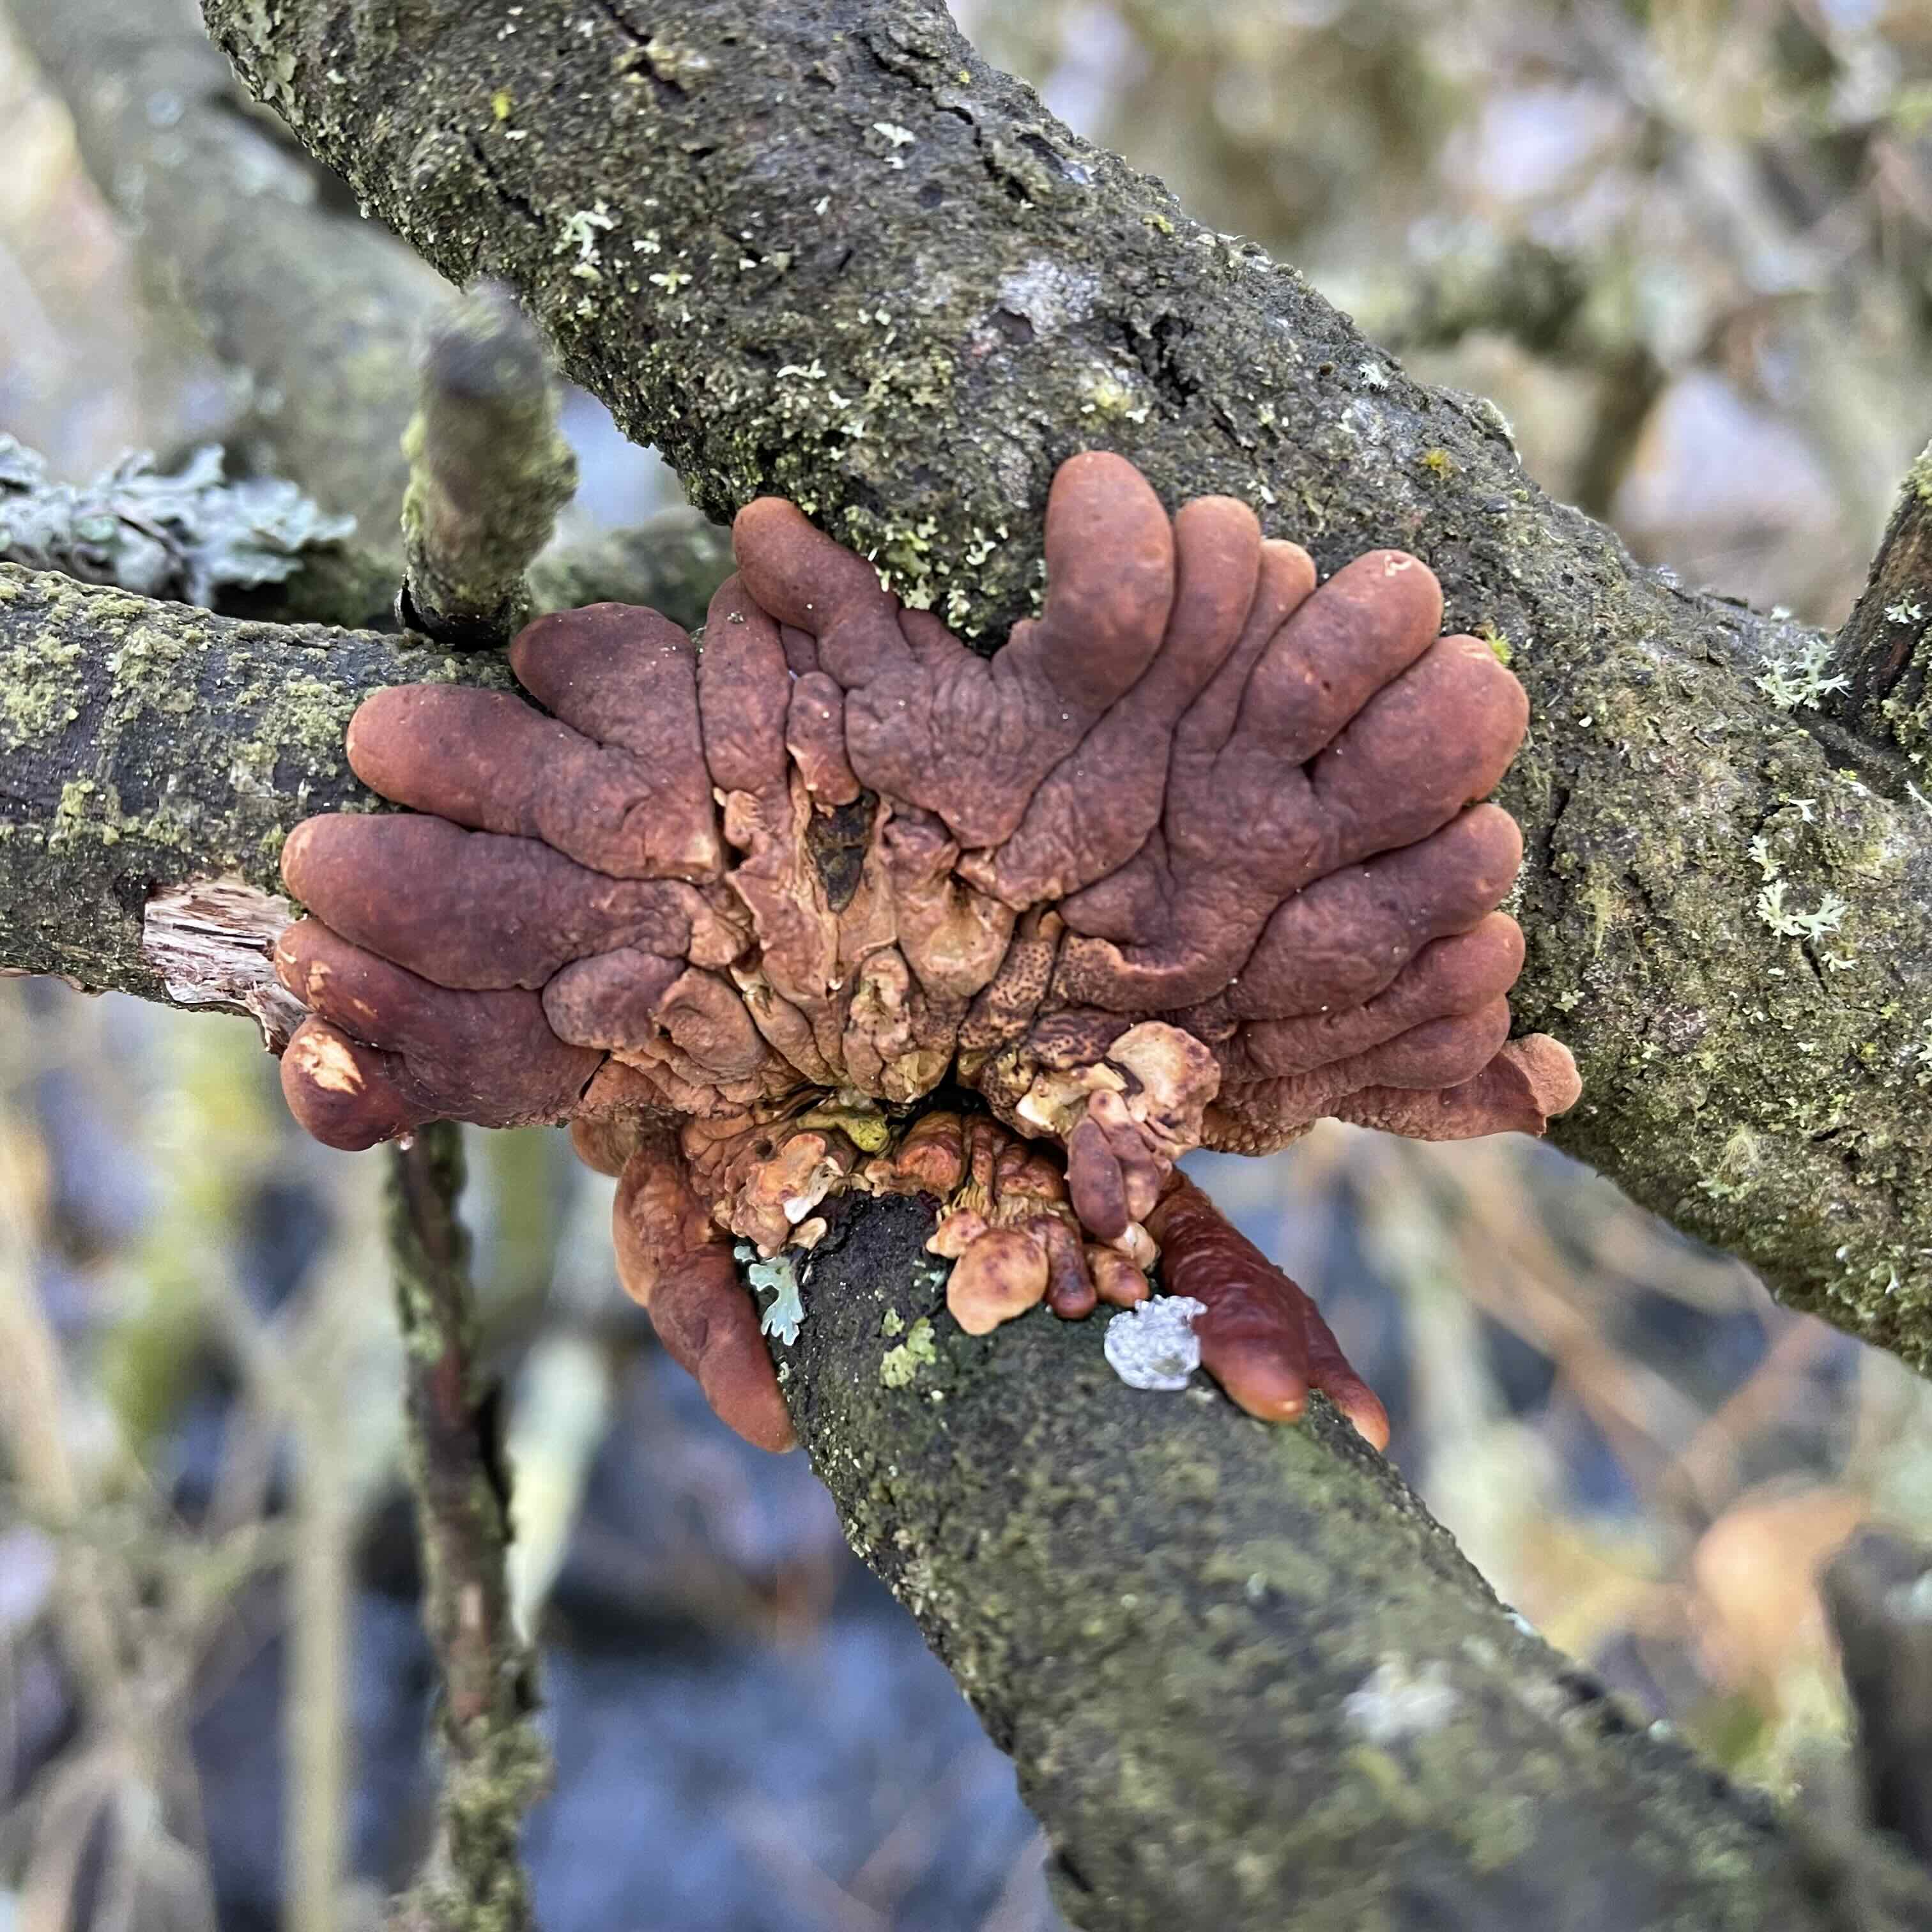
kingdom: Fungi
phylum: Ascomycota
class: Sordariomycetes
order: Hypocreales
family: Hypocreaceae
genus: Hypocreopsis
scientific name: Hypocreopsis lichenoides
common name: pilfinger
